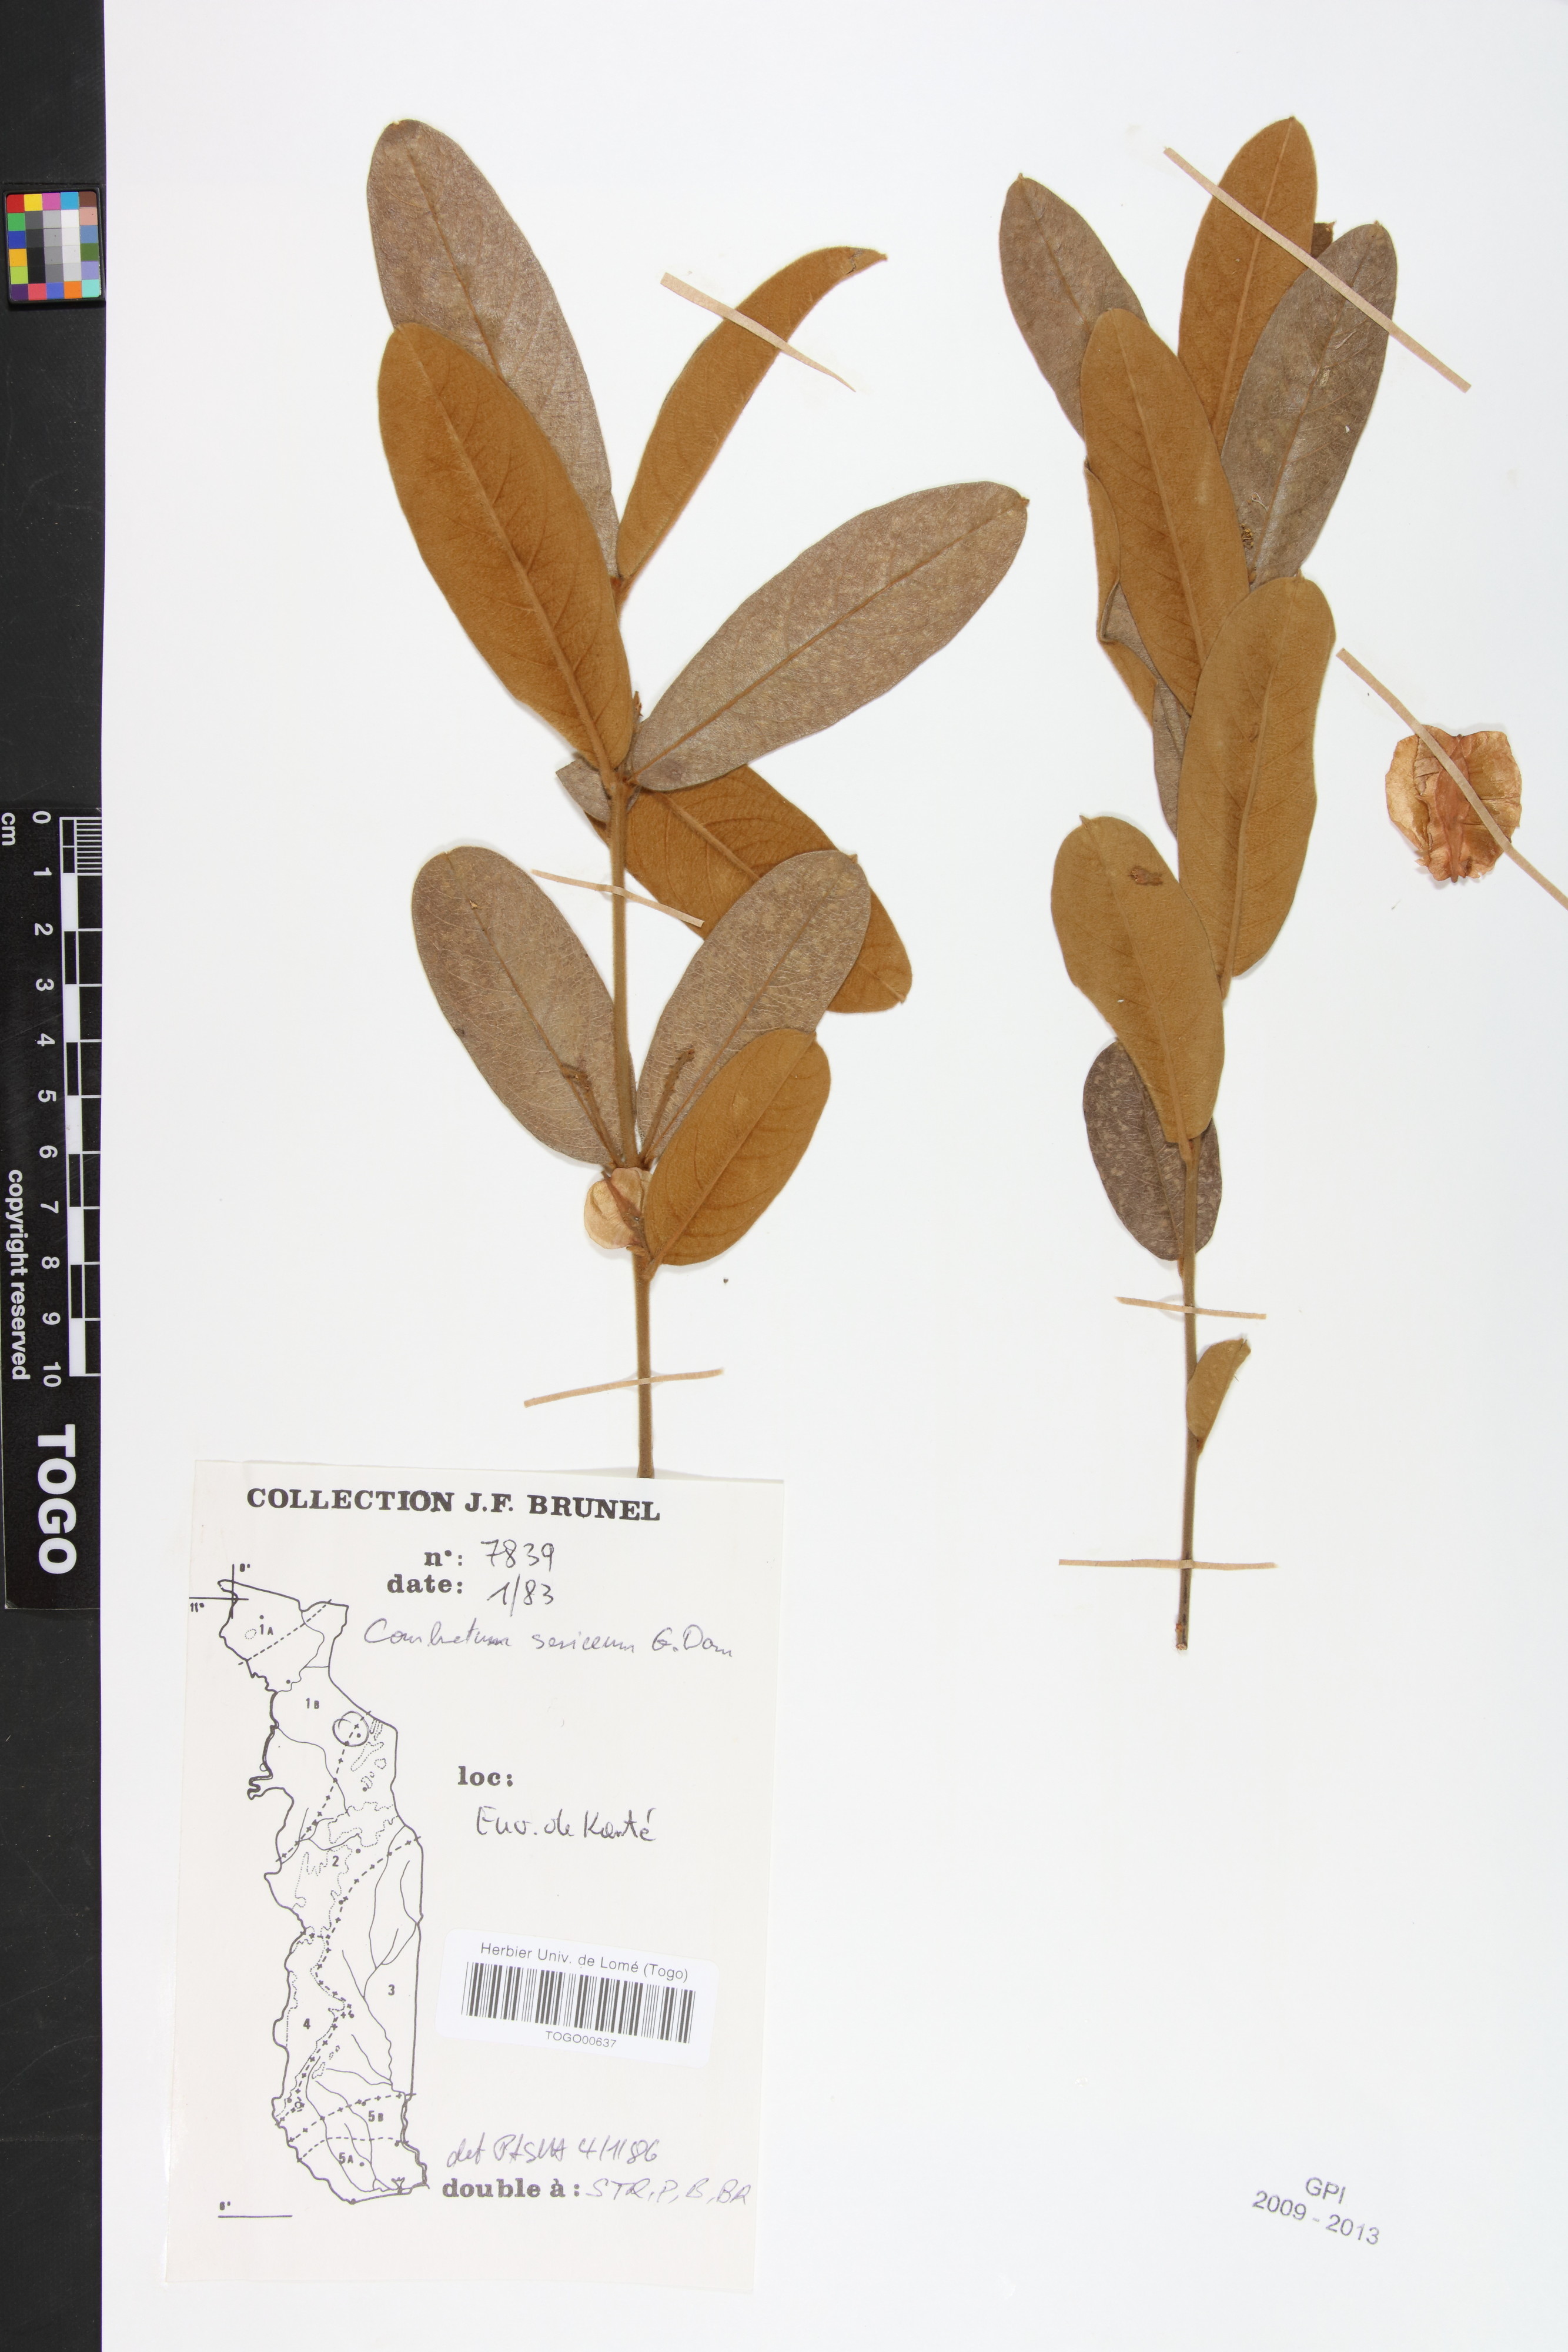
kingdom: Plantae
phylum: Tracheophyta
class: Magnoliopsida
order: Myrtales
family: Combretaceae
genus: Combretum
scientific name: Combretum sericeum
